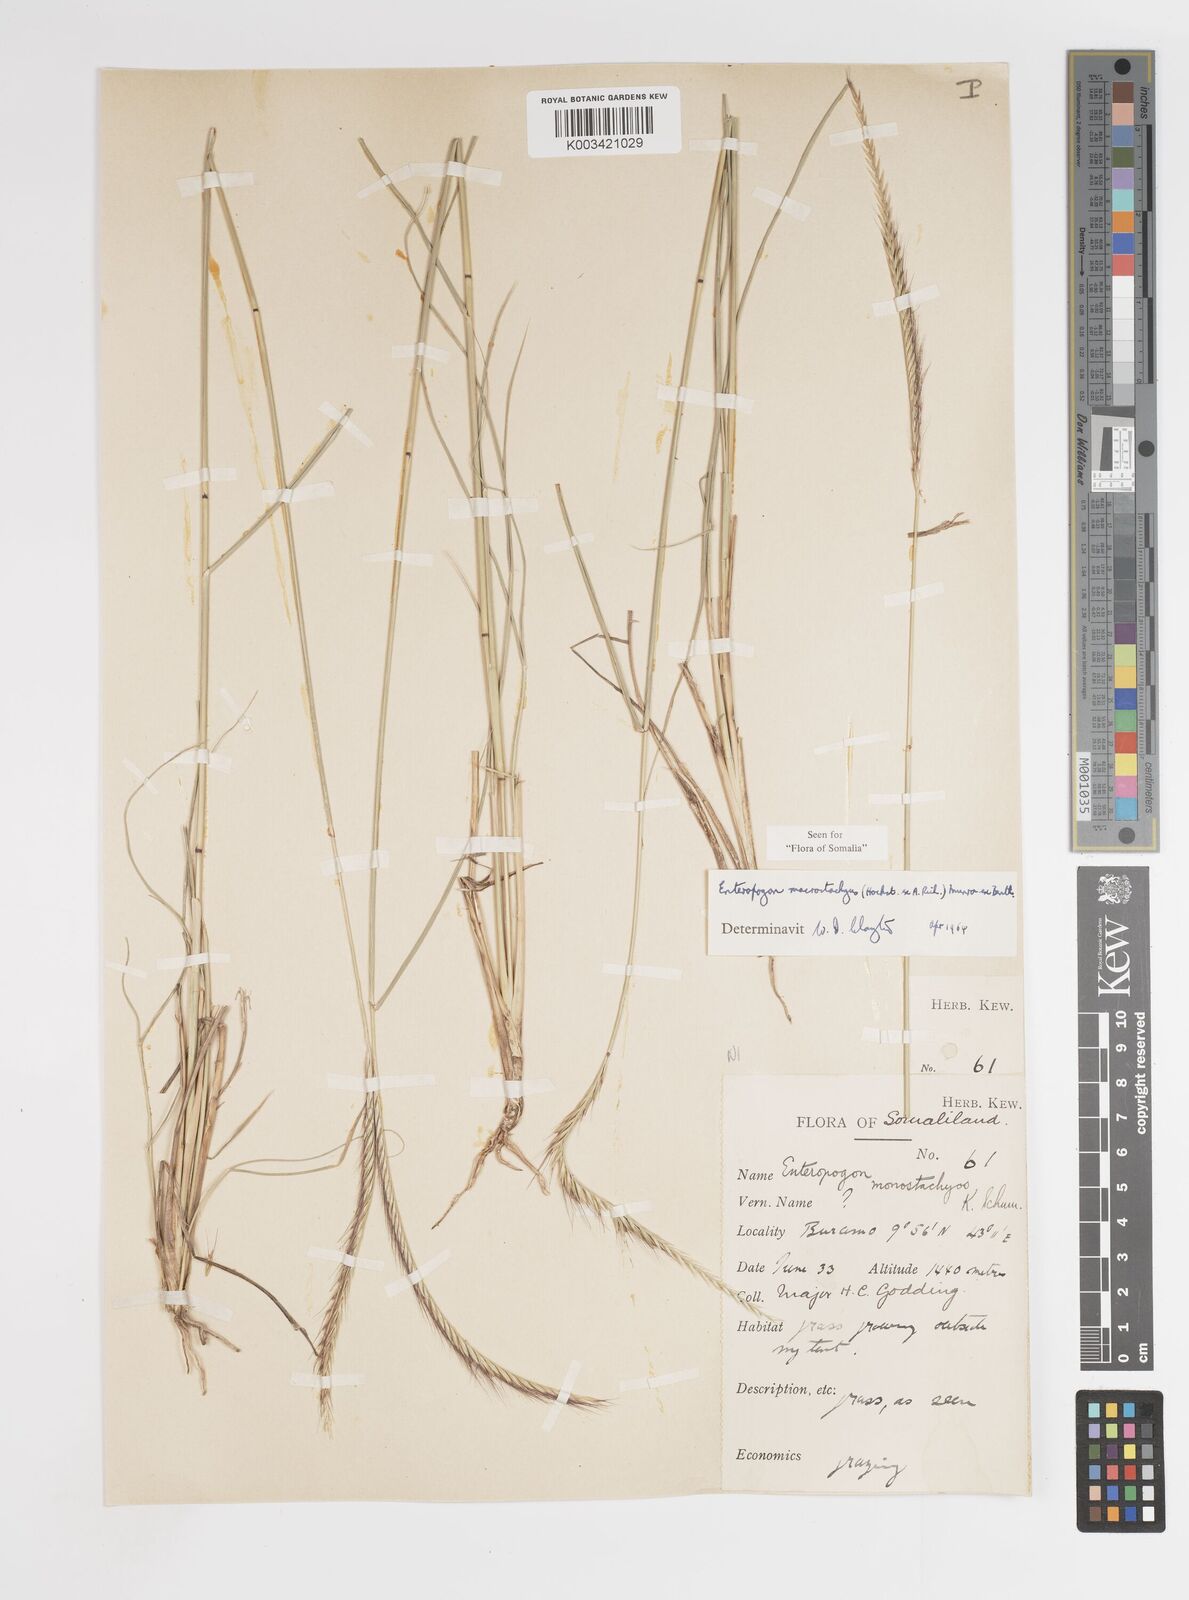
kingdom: Plantae
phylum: Tracheophyta
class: Liliopsida
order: Poales
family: Poaceae
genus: Enteropogon
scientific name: Enteropogon macrostachyus
